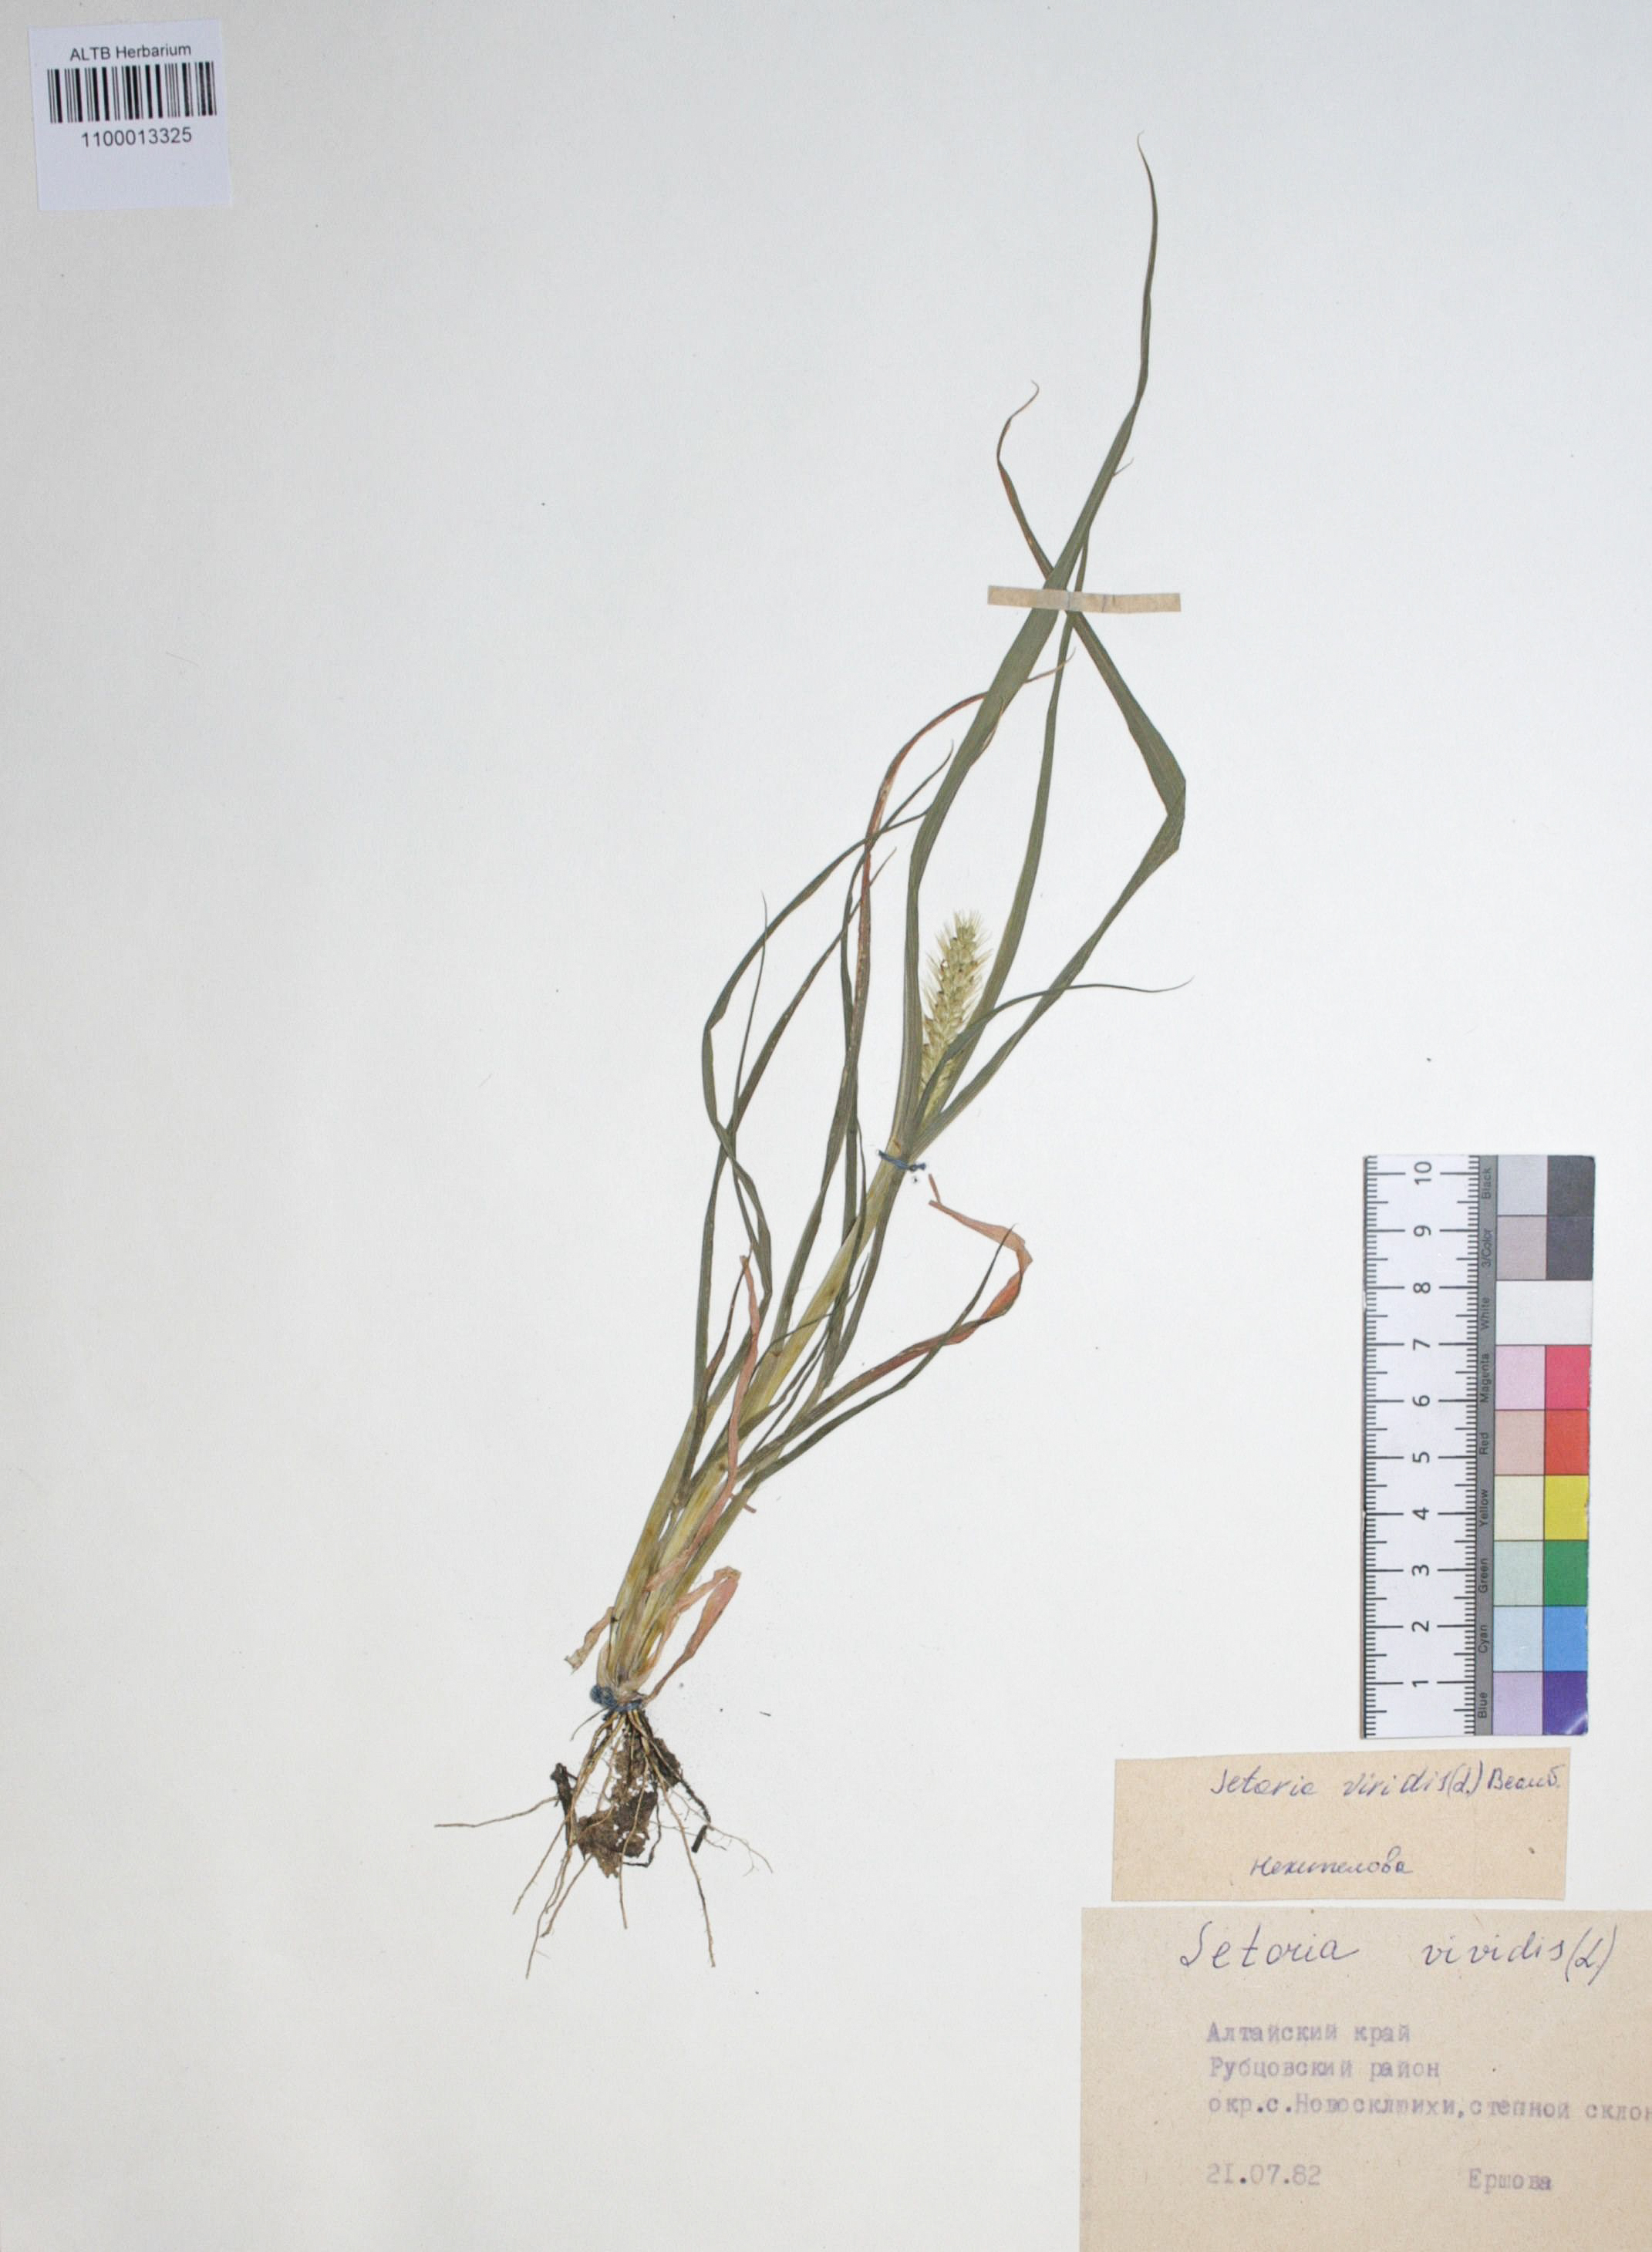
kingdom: Plantae
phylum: Tracheophyta
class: Liliopsida
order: Poales
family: Poaceae
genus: Setaria
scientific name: Setaria pumila
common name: Yellow bristle-grass
